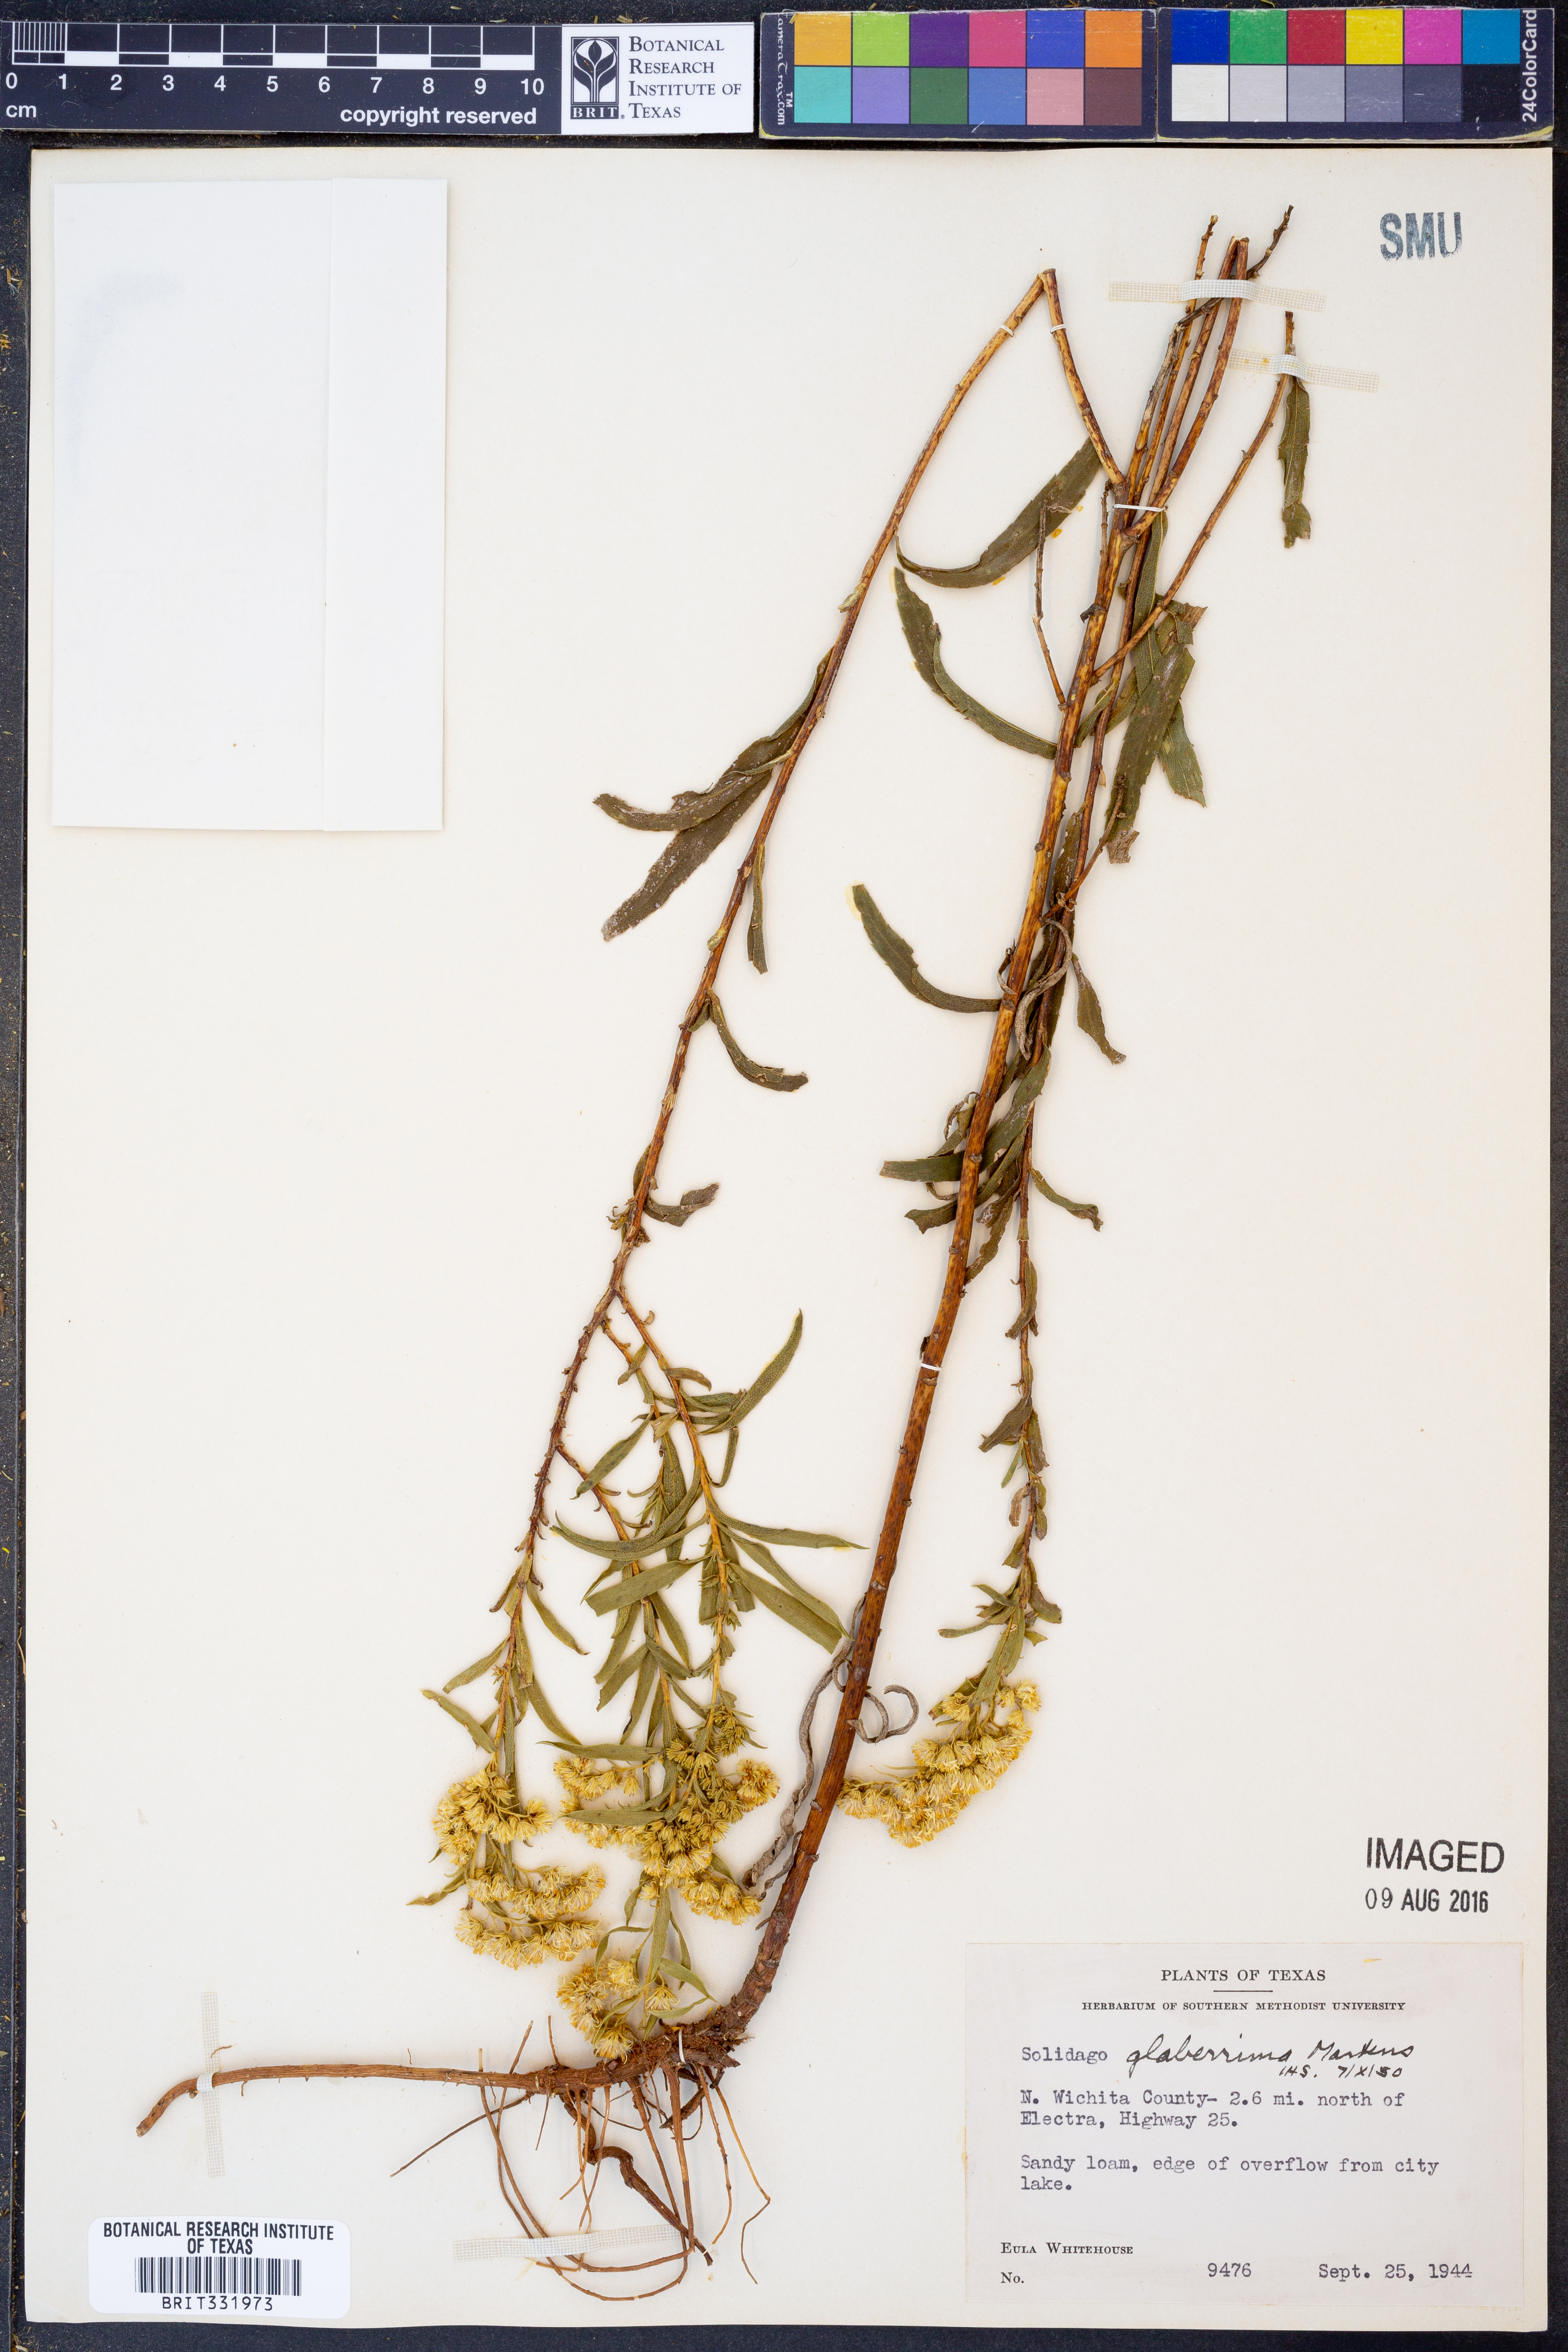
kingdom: Plantae
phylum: Tracheophyta
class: Magnoliopsida
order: Asterales
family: Asteraceae
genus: Solidago
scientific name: Solidago missouriensis
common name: Prairie goldenrod
